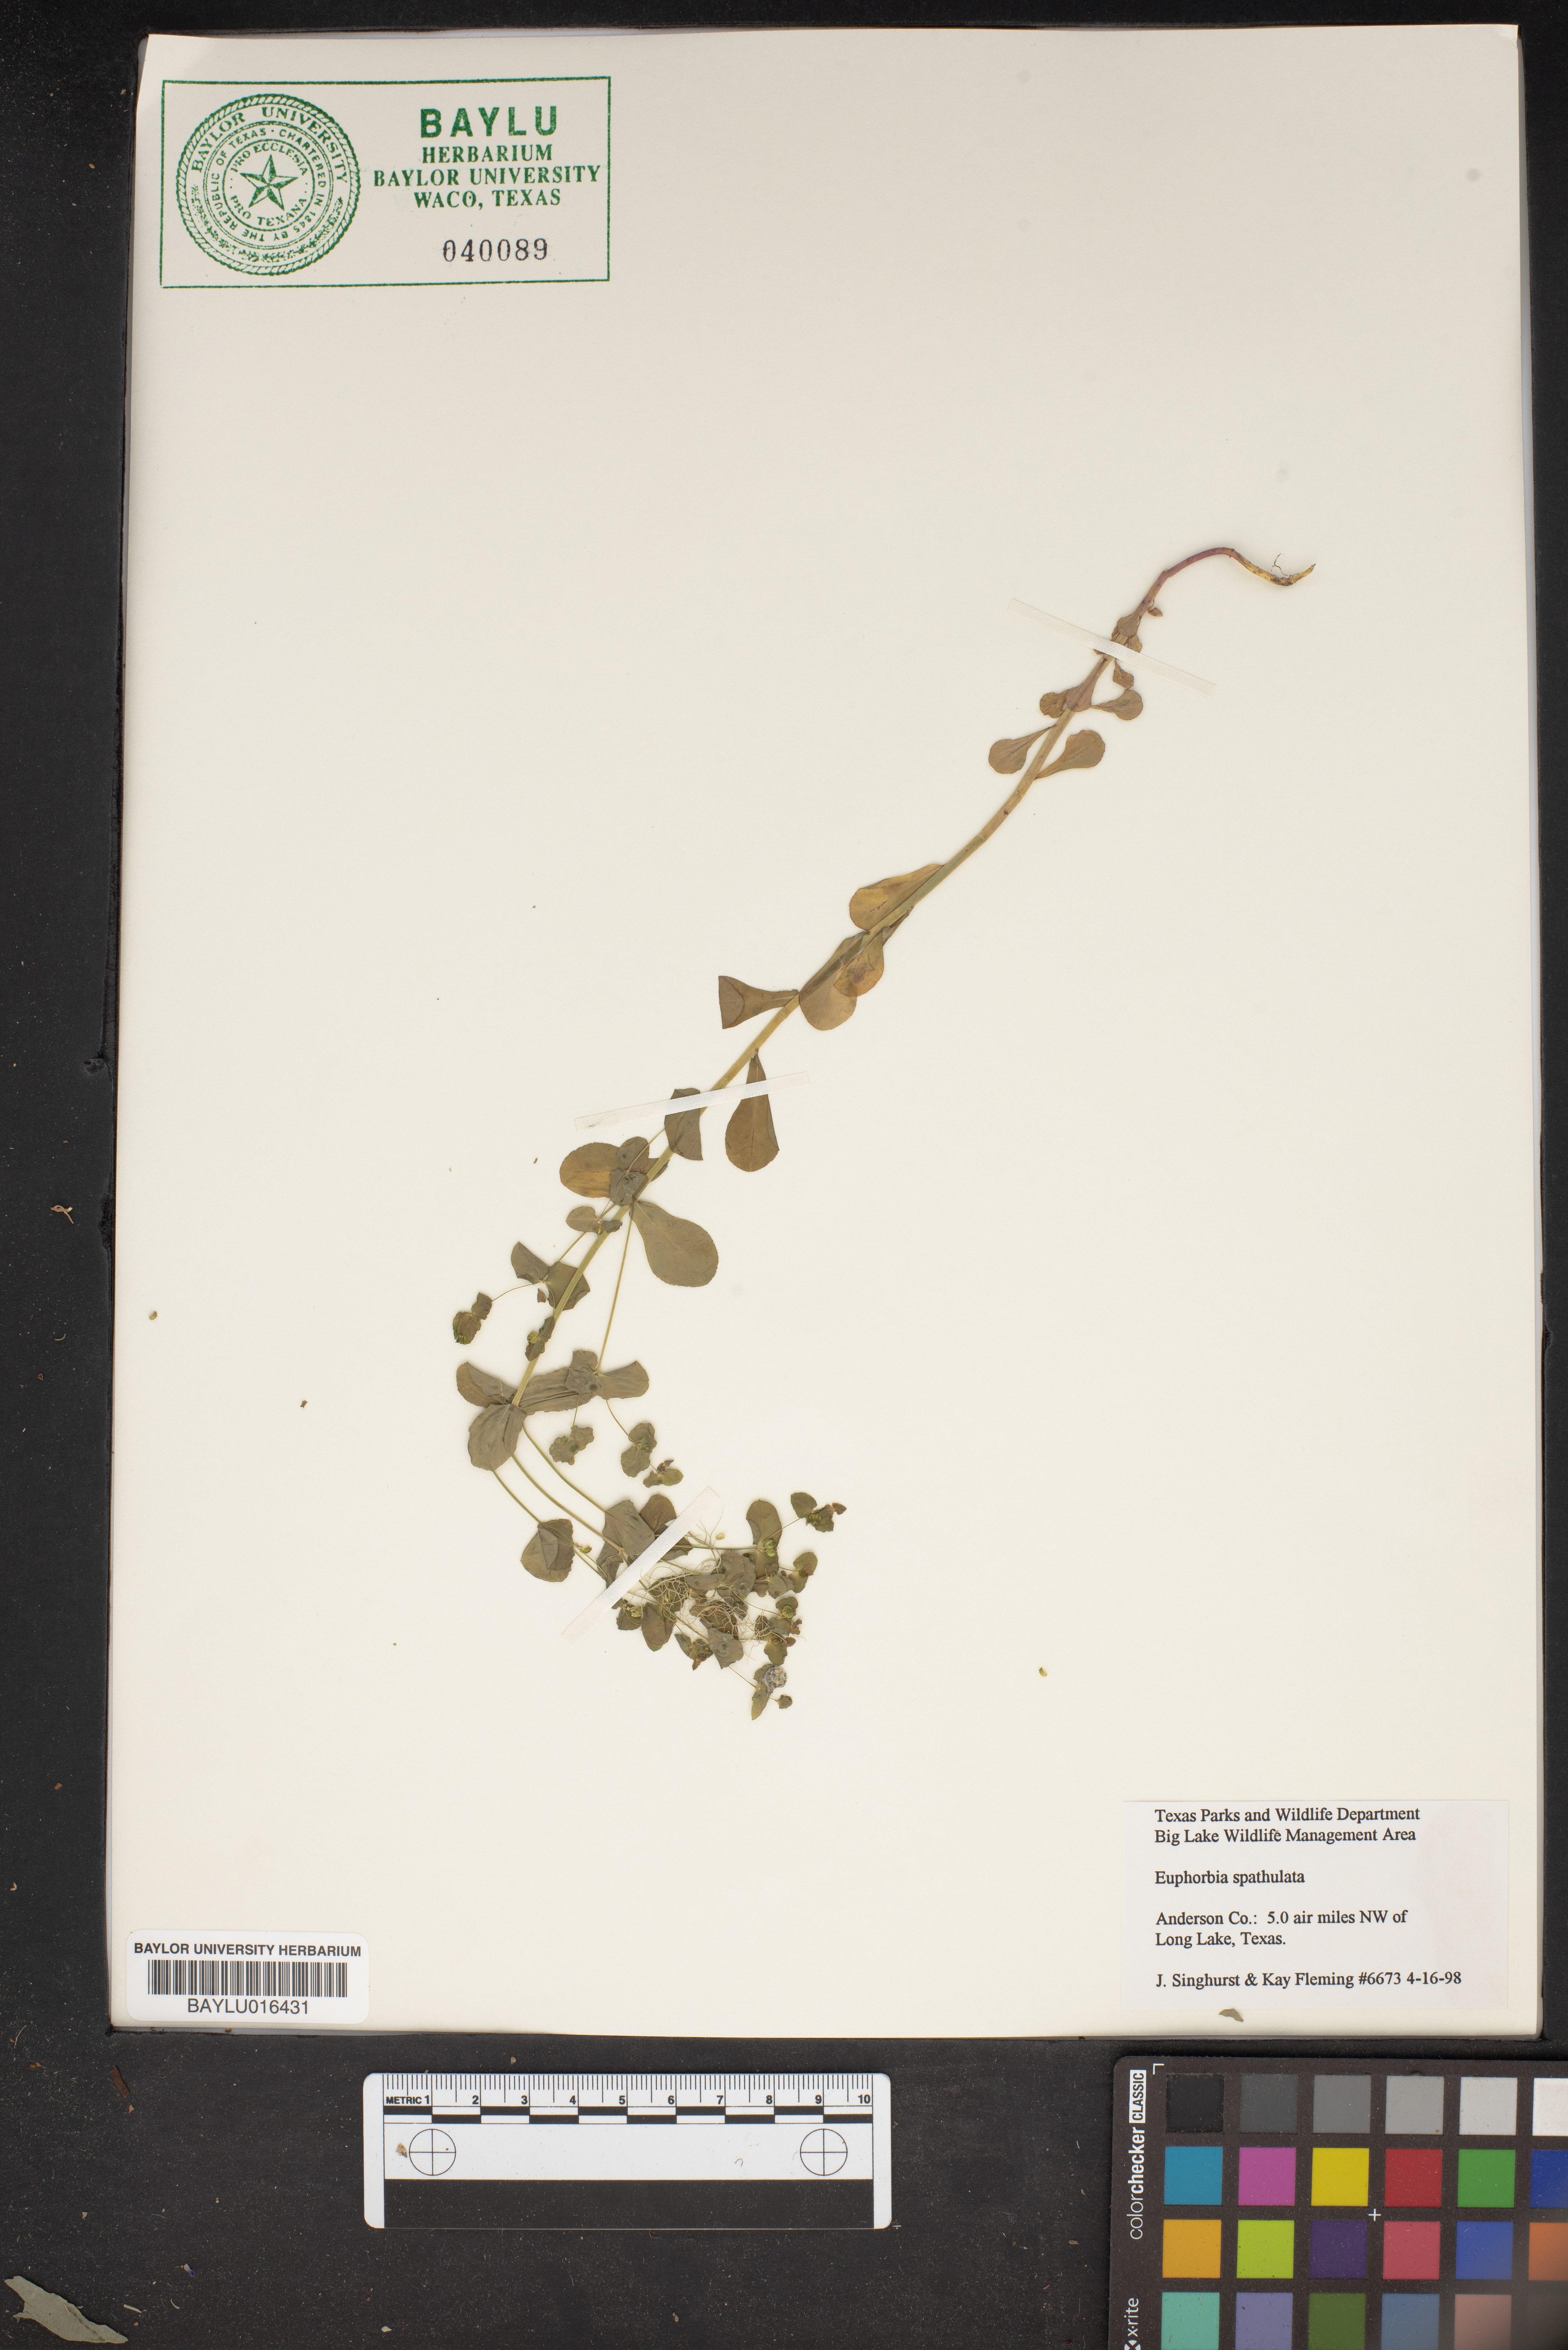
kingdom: Plantae
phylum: Tracheophyta
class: Magnoliopsida
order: Malpighiales
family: Euphorbiaceae
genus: Euphorbia
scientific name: Euphorbia spathulata
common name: Blunt spurge
